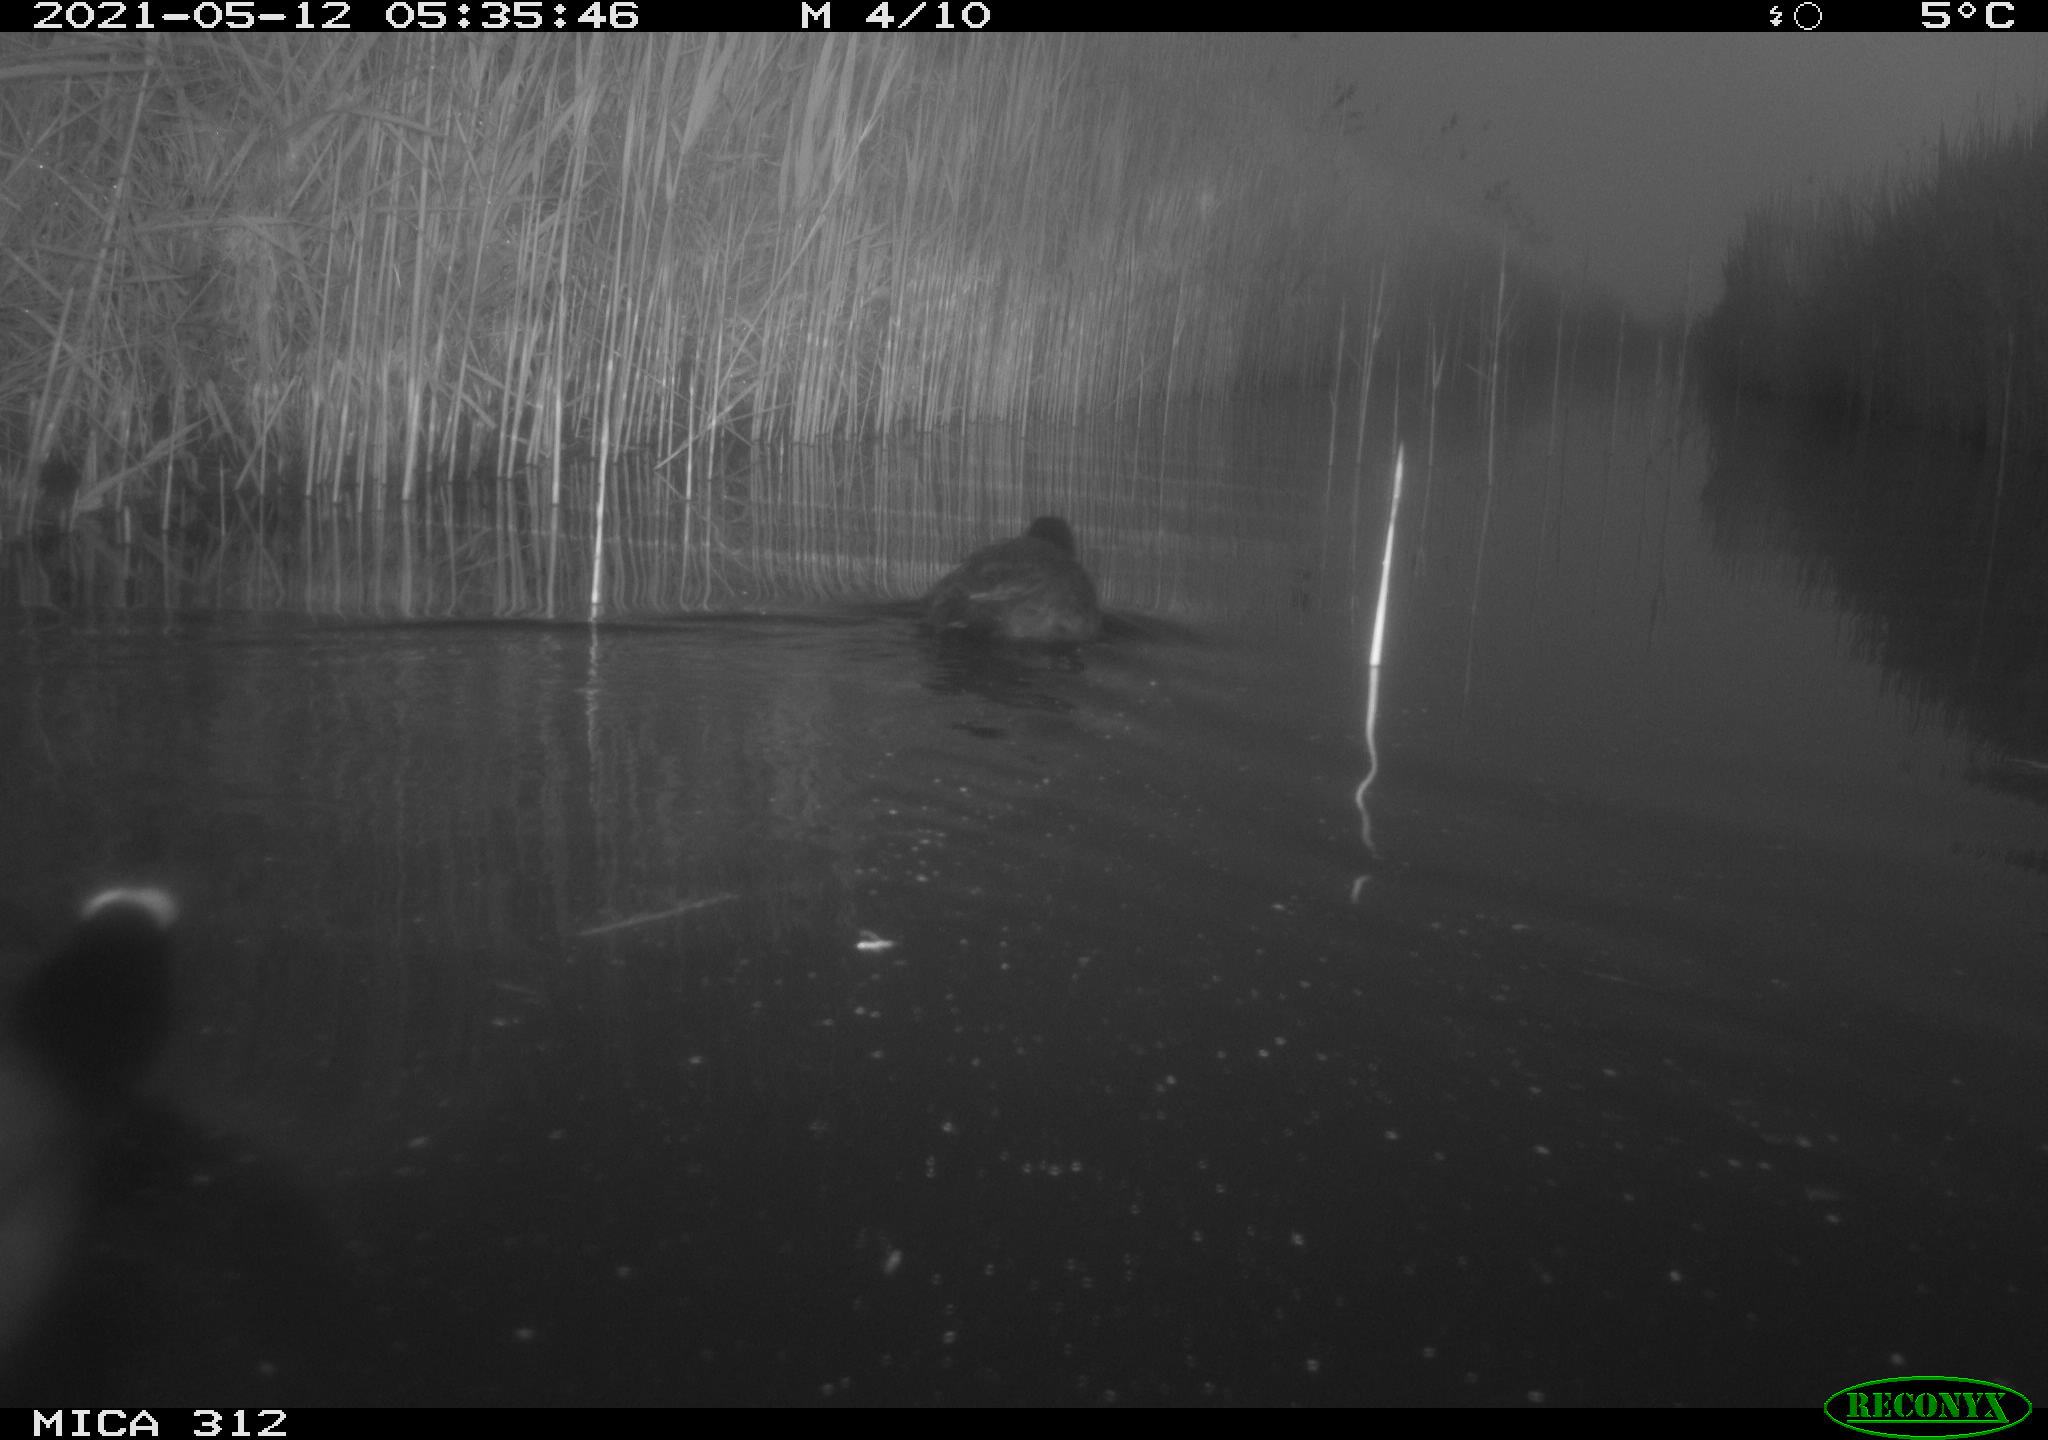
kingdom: Animalia
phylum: Chordata
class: Aves
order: Gruiformes
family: Rallidae
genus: Fulica
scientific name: Fulica atra
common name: Eurasian coot
